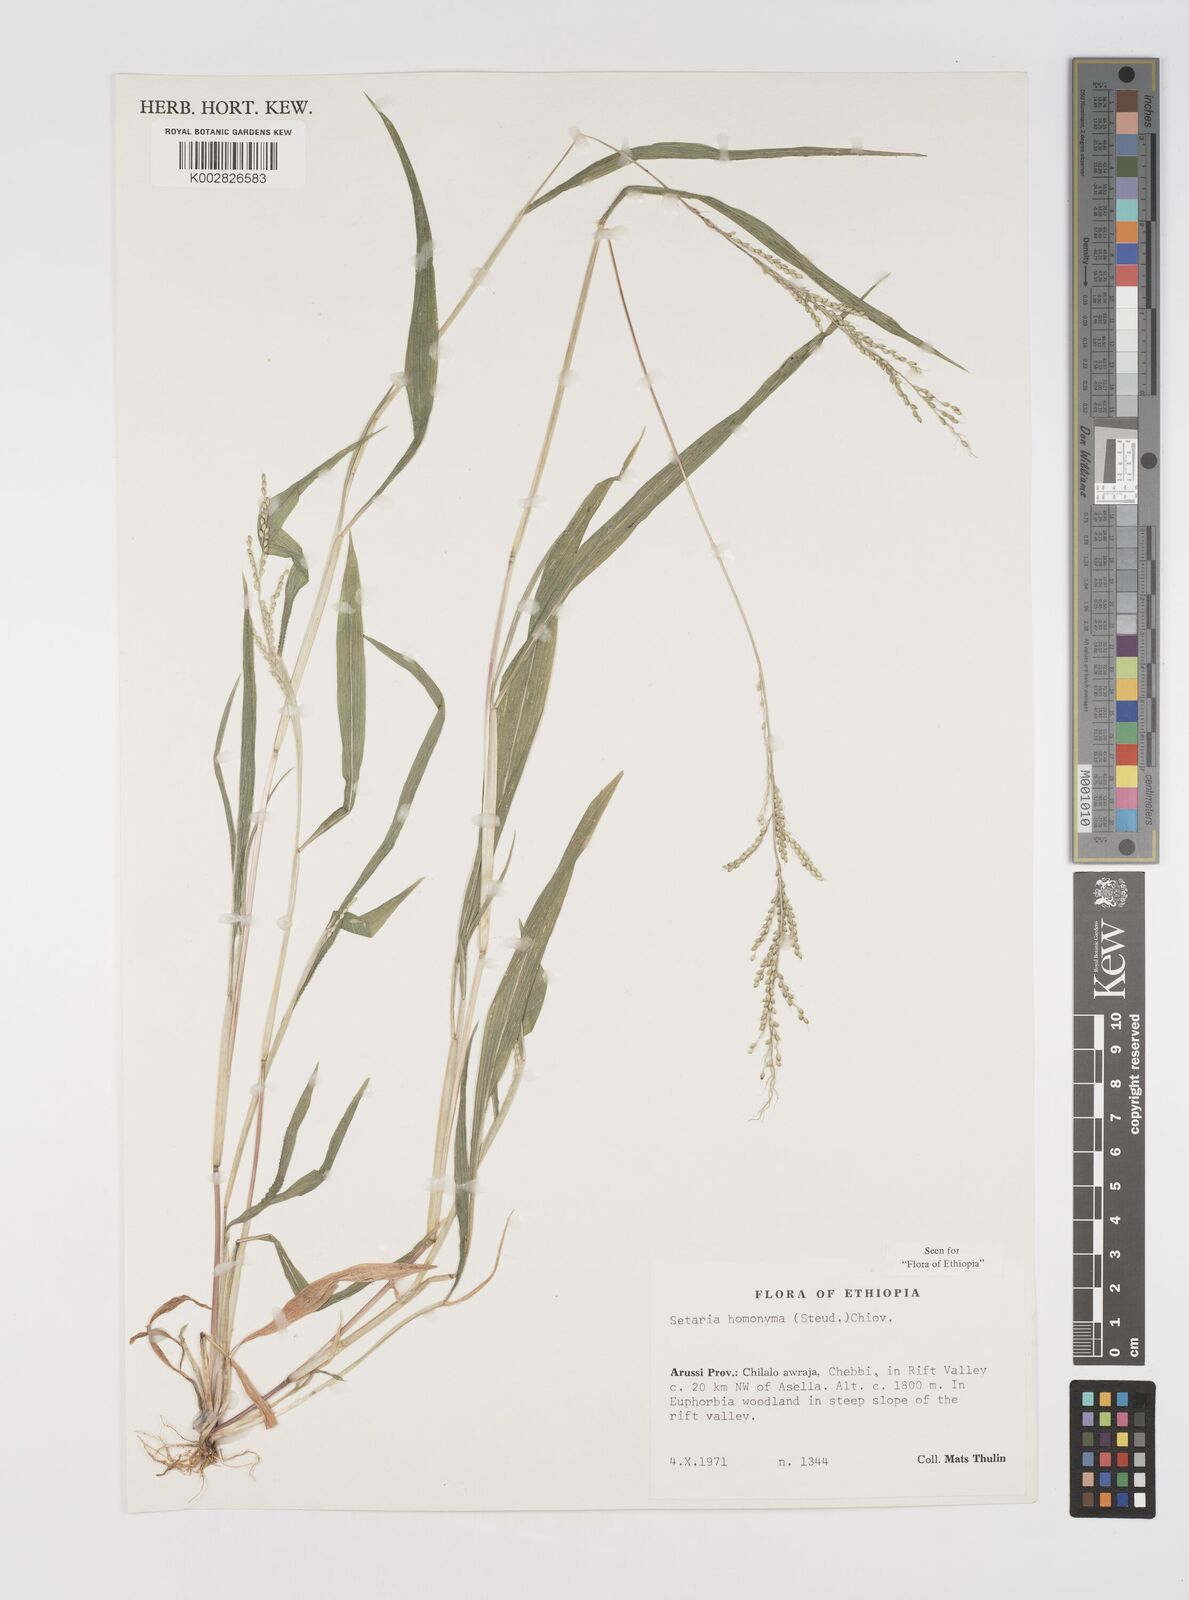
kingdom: Plantae
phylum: Tracheophyta
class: Liliopsida
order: Poales
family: Poaceae
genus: Setaria
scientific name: Setaria homonyma
